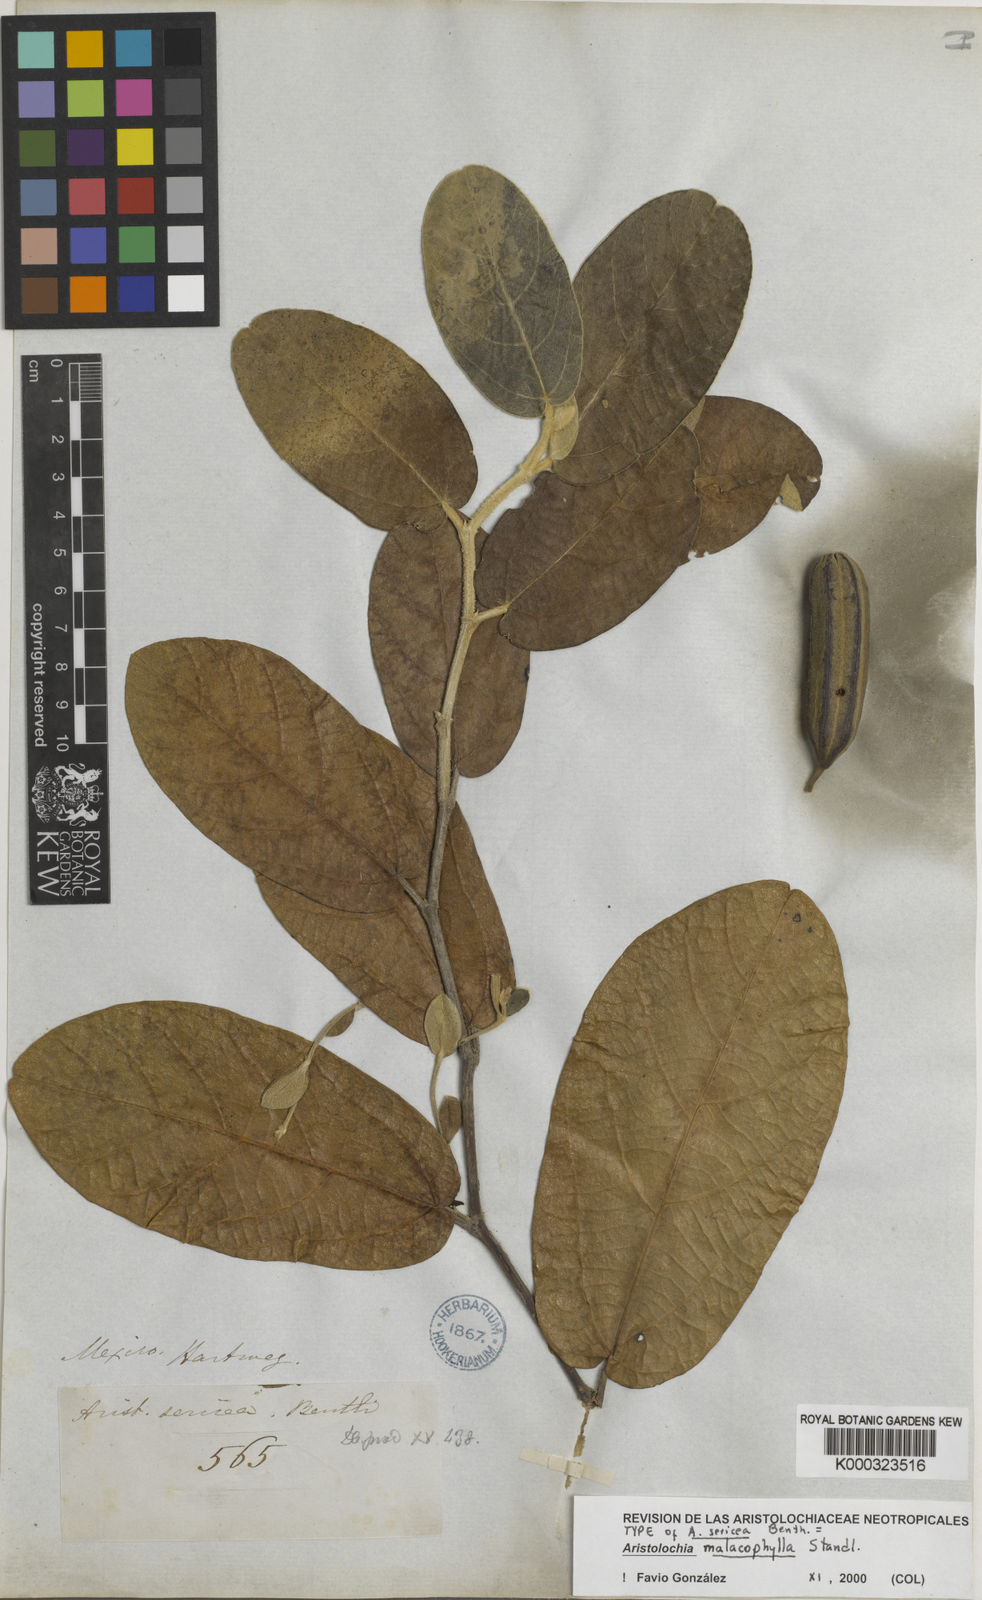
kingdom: Plantae
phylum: Tracheophyta
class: Magnoliopsida
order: Piperales
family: Aristolochiaceae
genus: Isotrema
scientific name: Isotrema malacophyllum
